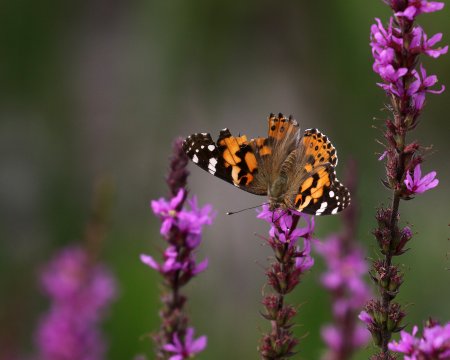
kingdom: Animalia
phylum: Arthropoda
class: Insecta
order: Lepidoptera
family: Nymphalidae
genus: Vanessa
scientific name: Vanessa cardui
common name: Painted Lady
